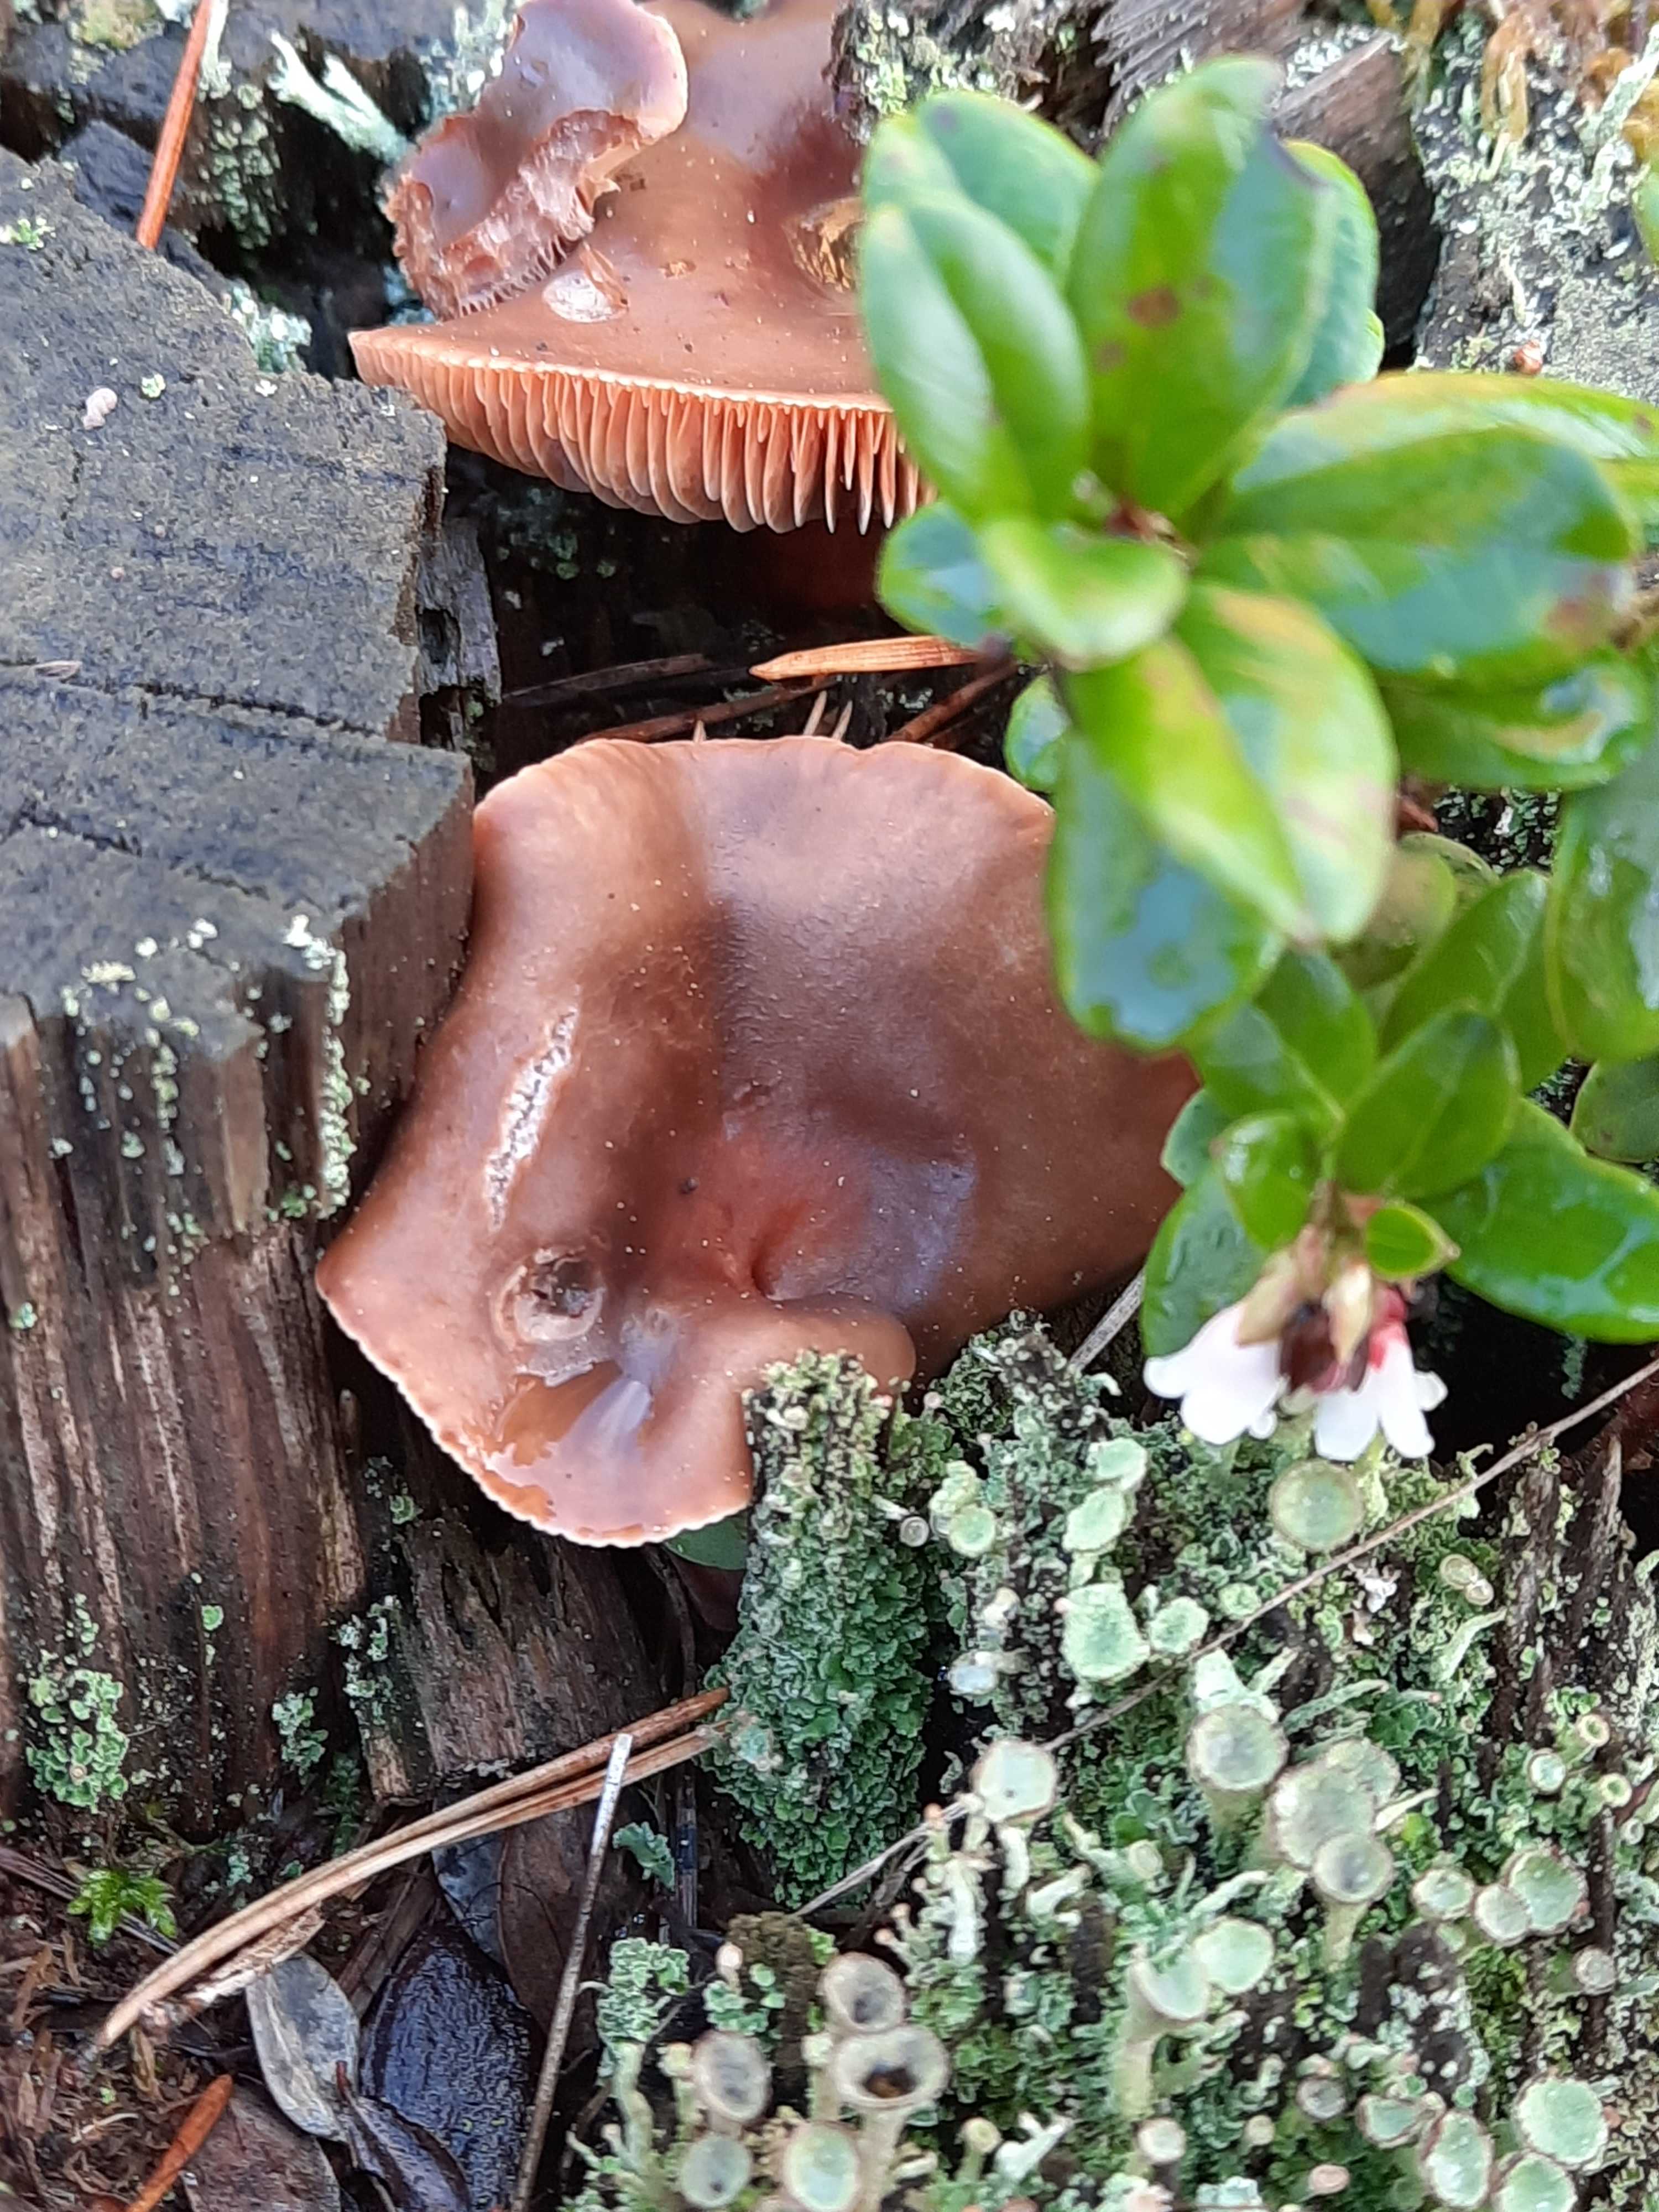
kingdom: Fungi
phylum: Basidiomycota
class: Agaricomycetes
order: Russulales
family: Russulaceae
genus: Lactarius
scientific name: Lactarius hepaticus
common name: leverbrun mælkehat
